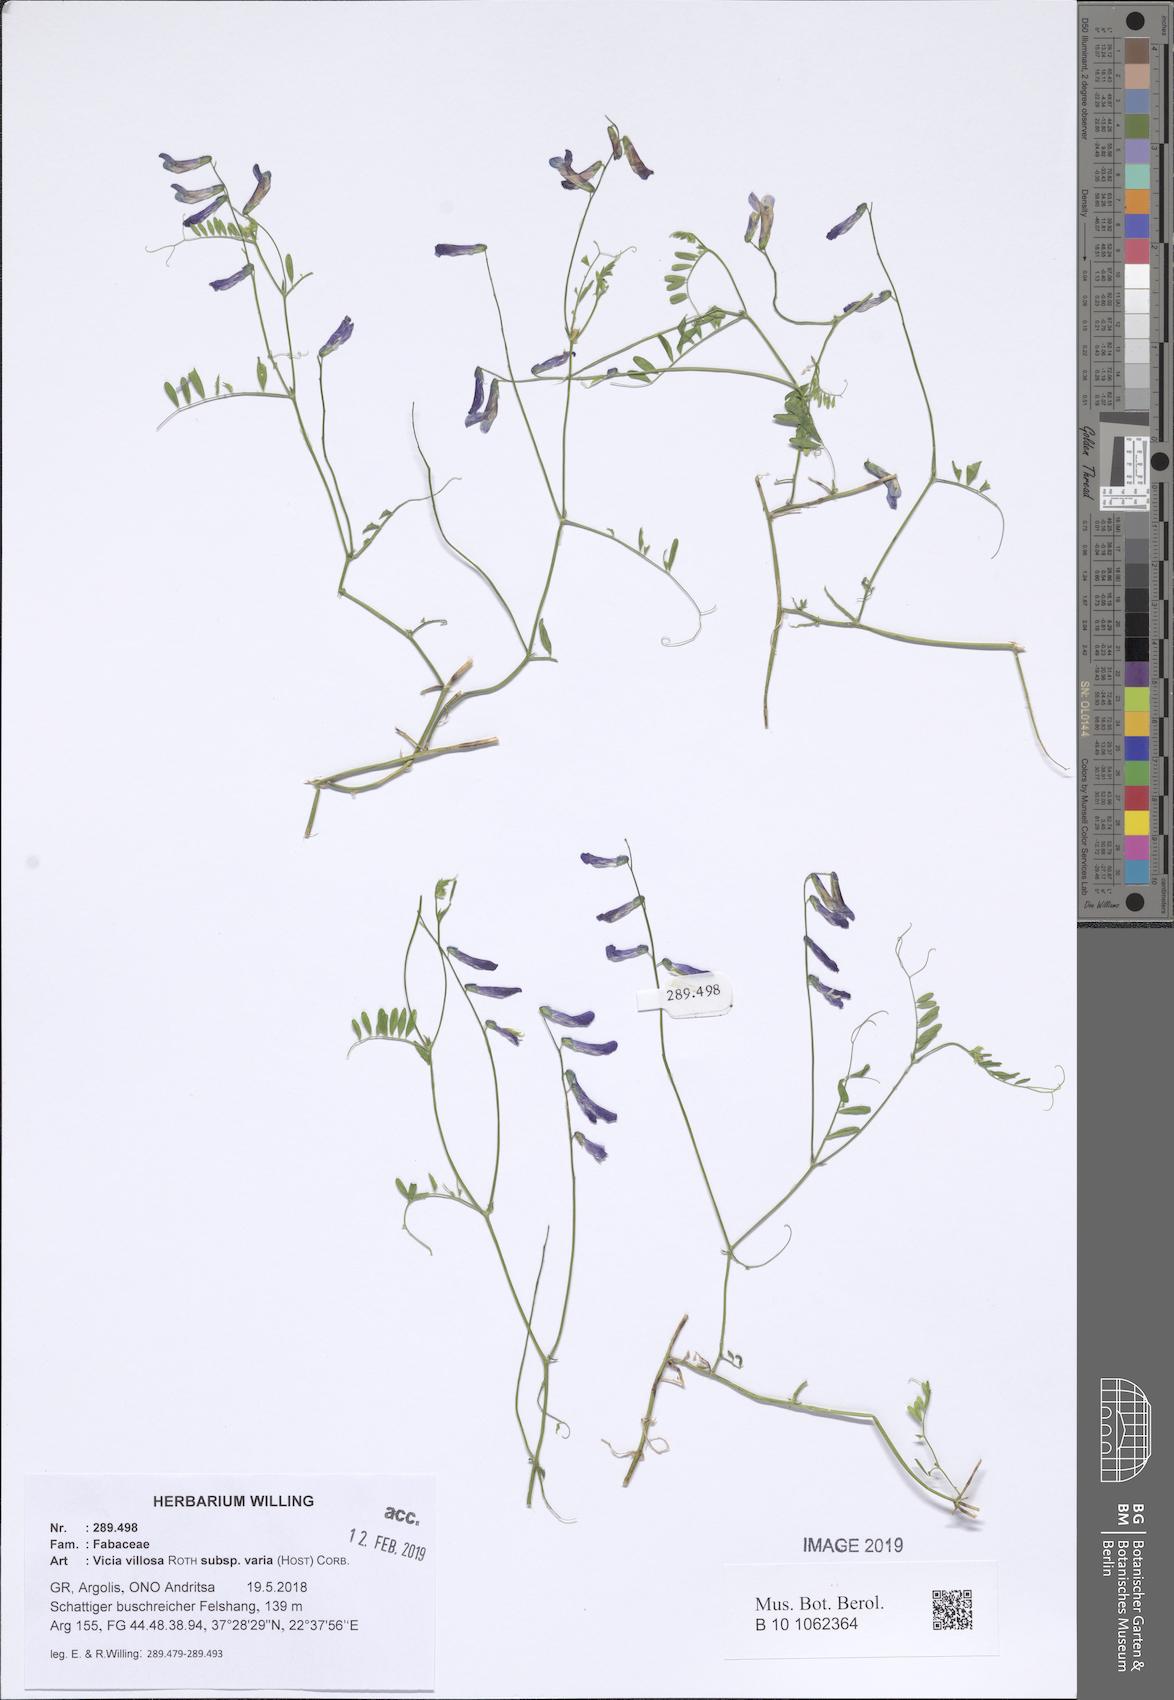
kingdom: Plantae
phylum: Tracheophyta
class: Magnoliopsida
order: Fabales
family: Fabaceae
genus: Vicia
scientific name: Vicia villosa
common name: Fodder vetch
